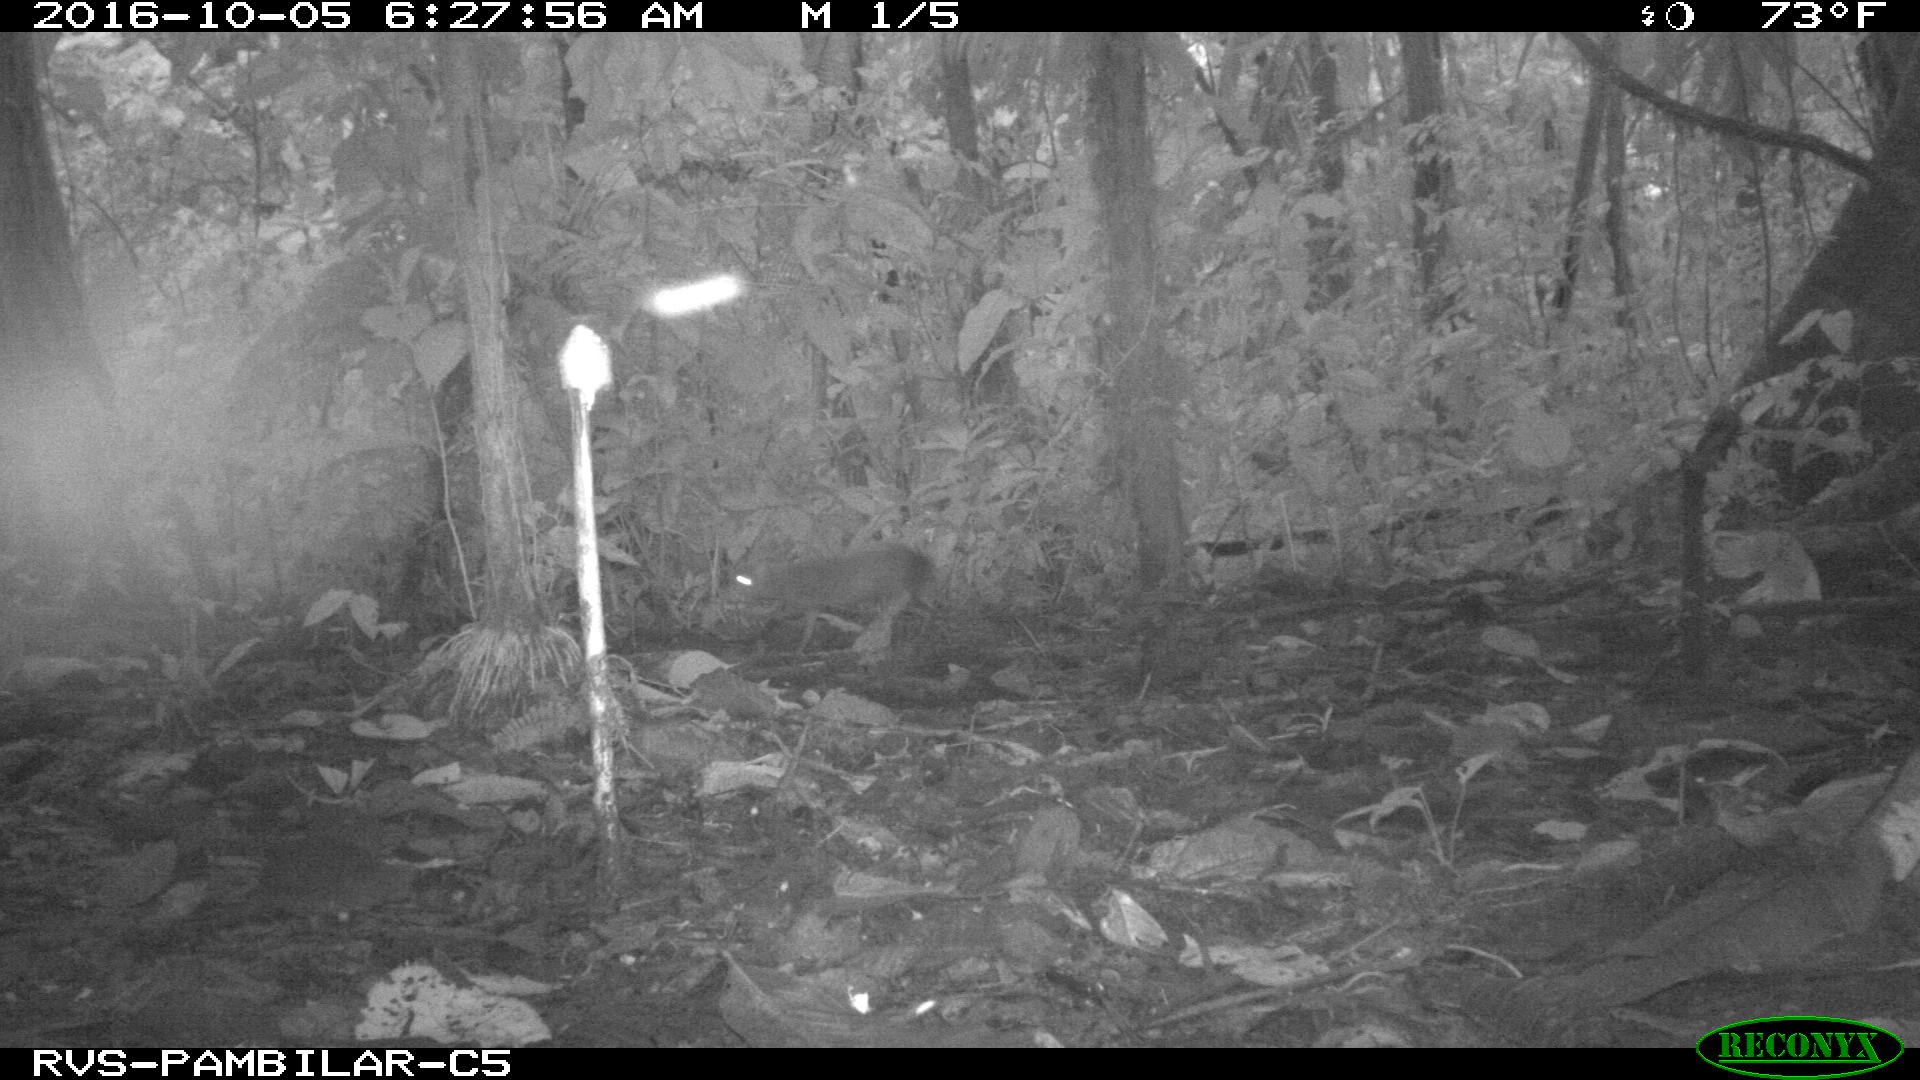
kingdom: Animalia
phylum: Chordata
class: Mammalia
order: Rodentia
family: Dasyproctidae
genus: Dasyprocta
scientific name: Dasyprocta punctata
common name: Central american agouti
